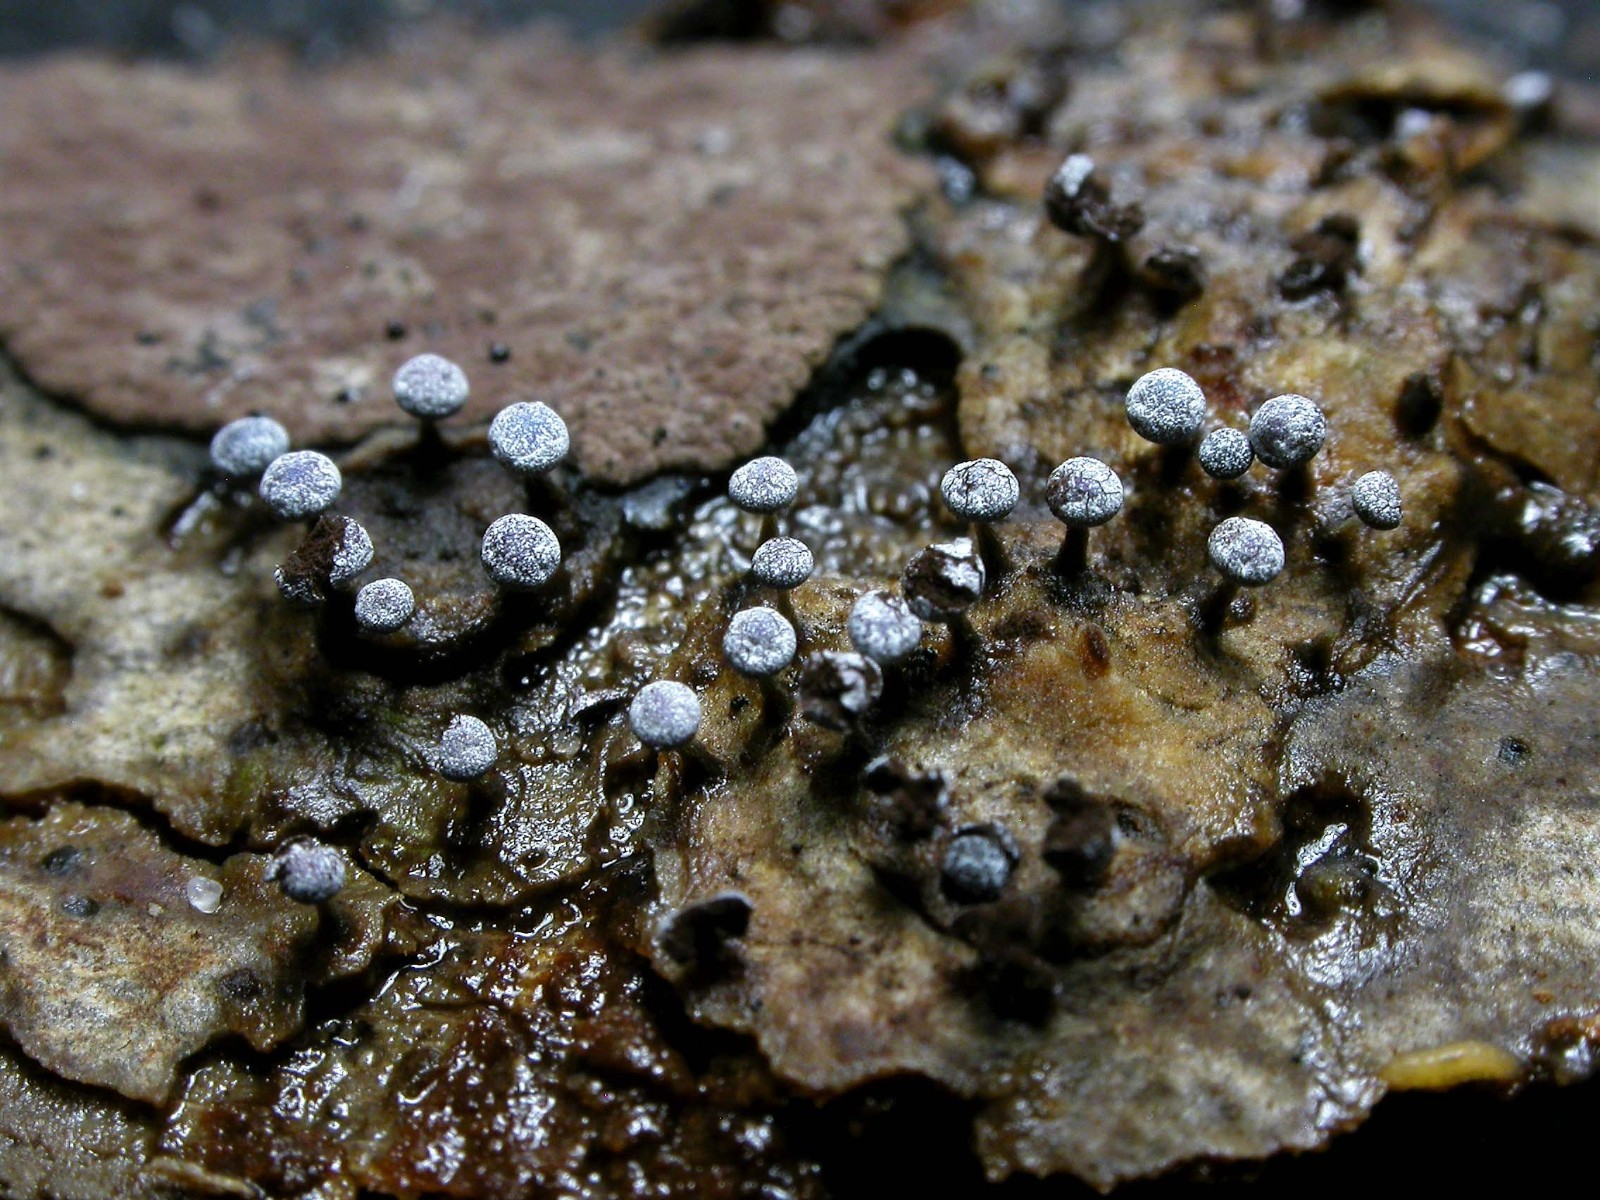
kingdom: Protozoa
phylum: Mycetozoa
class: Myxomycetes
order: Physarales
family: Physaraceae
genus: Physarum
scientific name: Physarum leucophaeum
